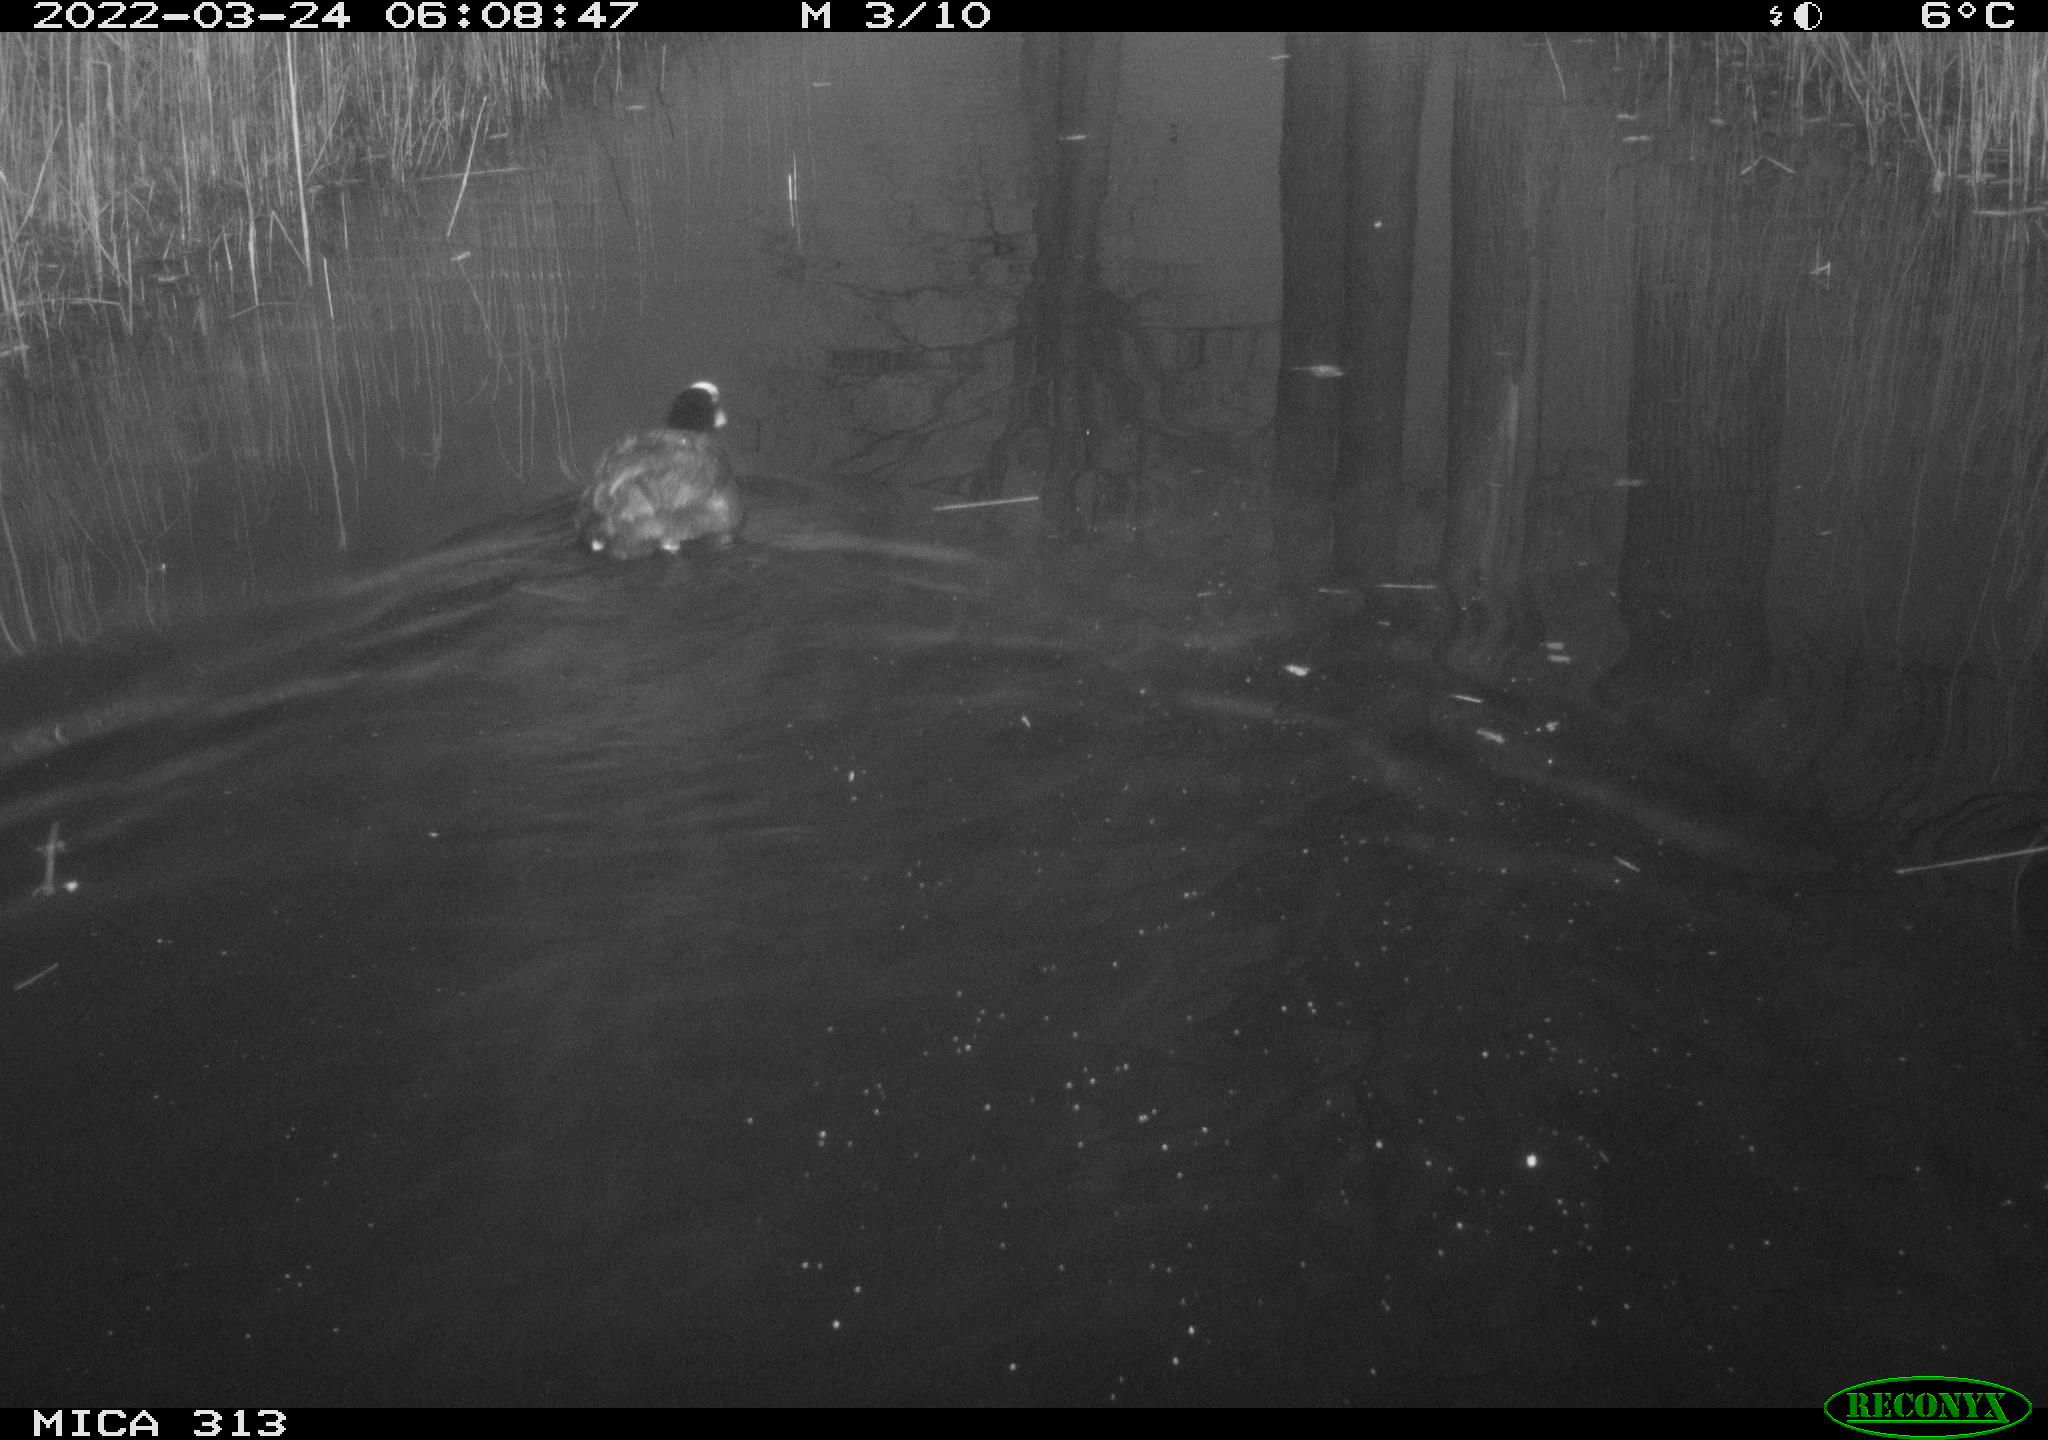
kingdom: Animalia
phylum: Chordata
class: Aves
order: Gruiformes
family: Rallidae
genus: Fulica
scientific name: Fulica atra
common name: Eurasian coot
